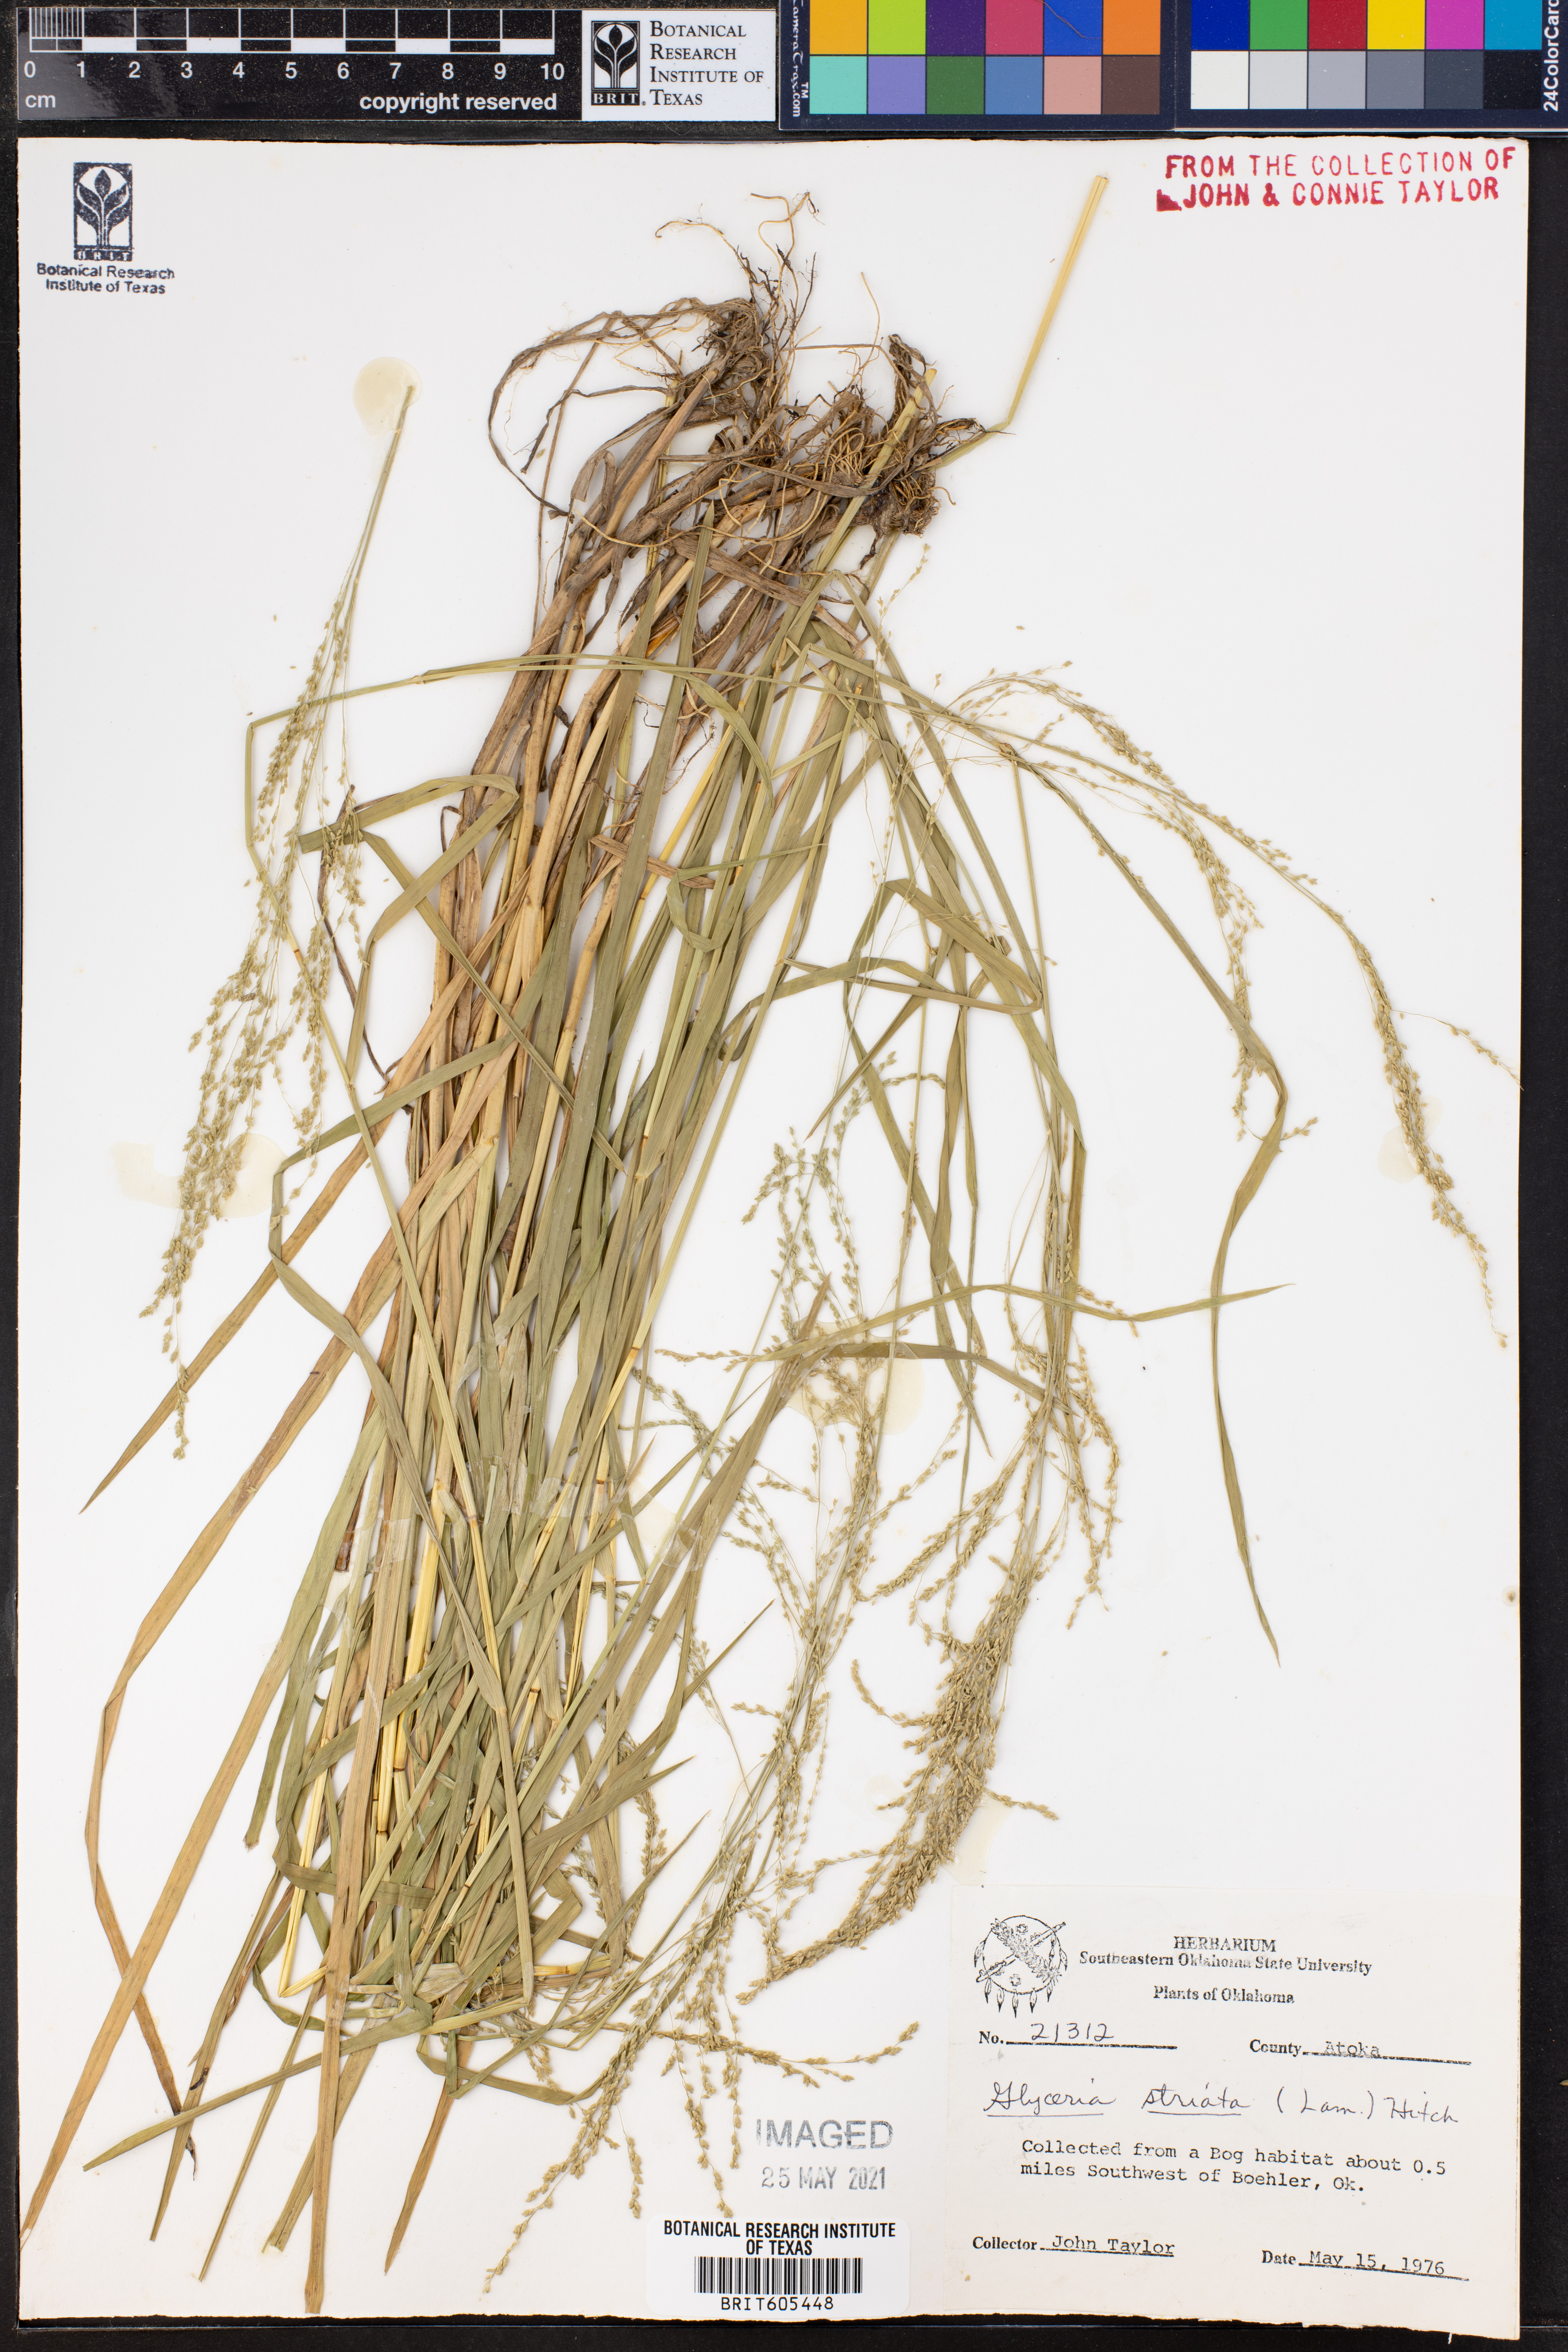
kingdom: Plantae
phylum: Tracheophyta
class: Liliopsida
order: Poales
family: Poaceae
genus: Glyceria
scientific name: Glyceria striata
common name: Fowl manna grass
